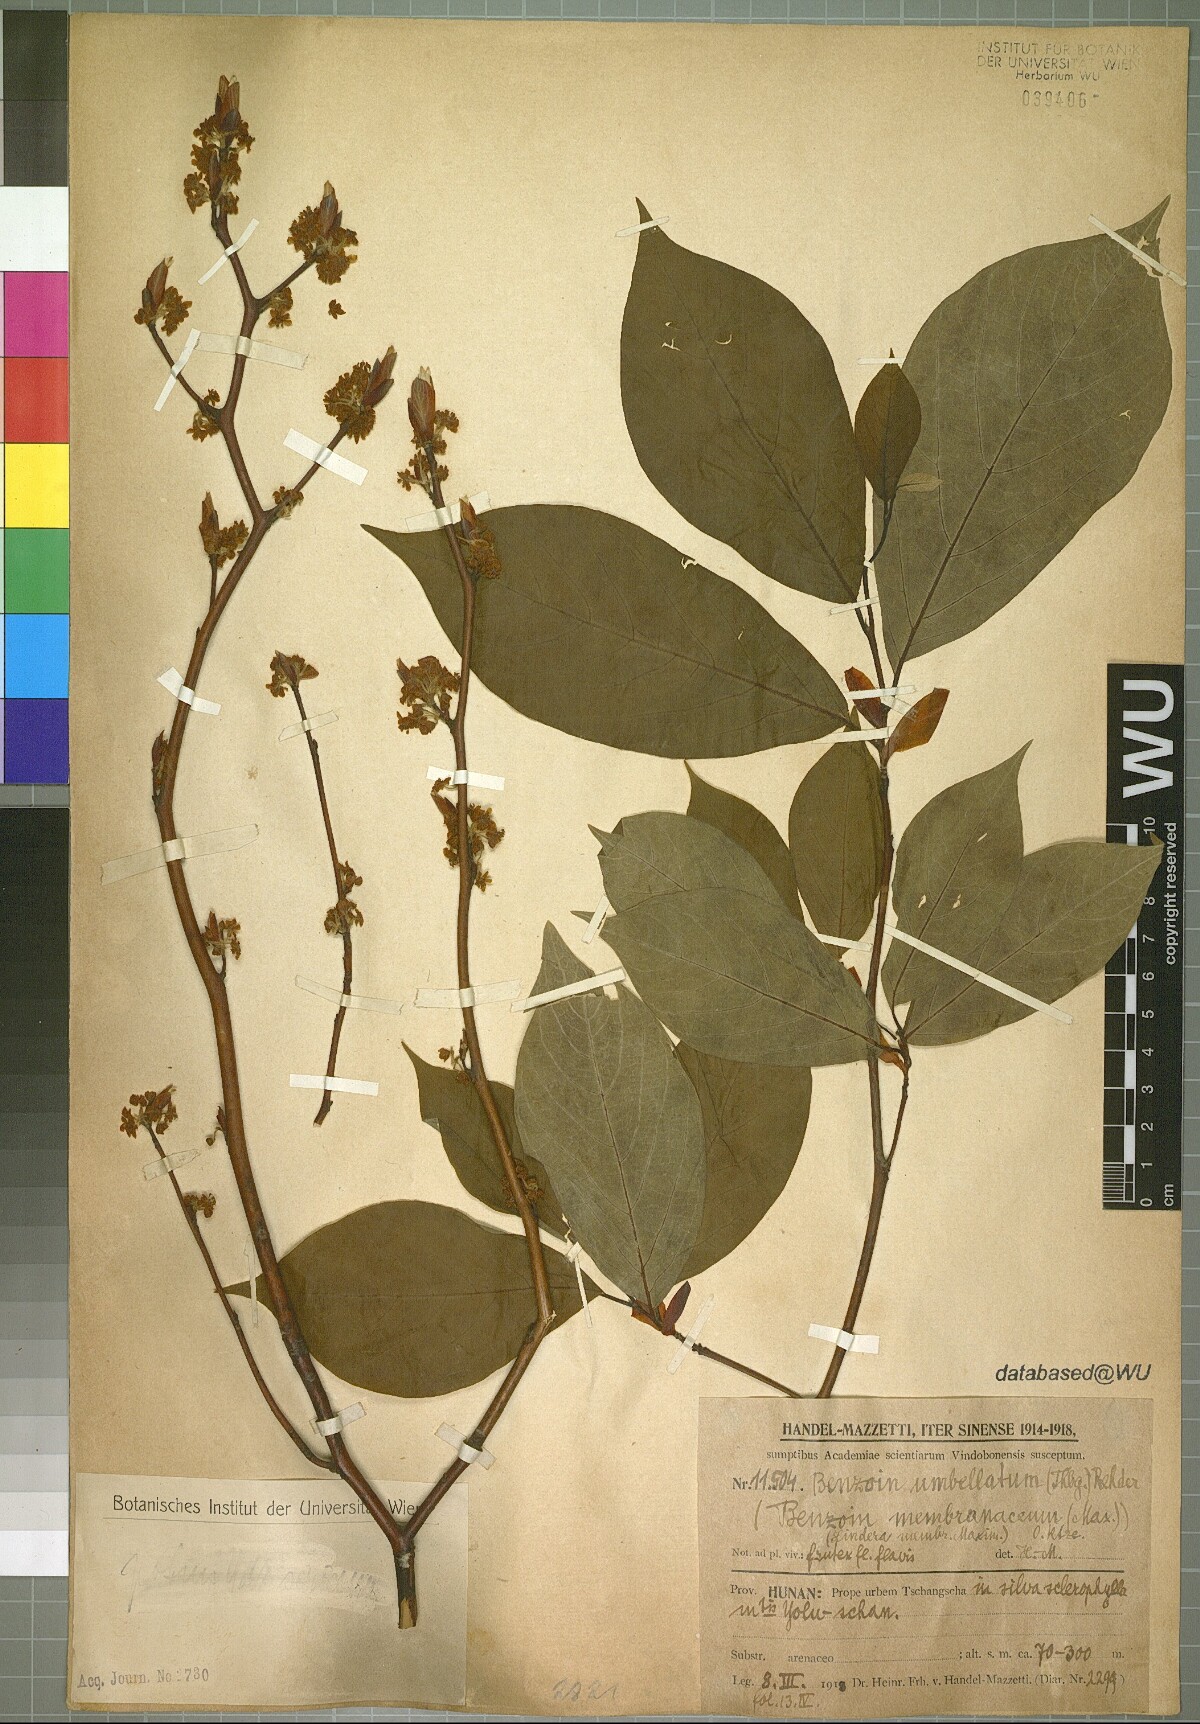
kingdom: Plantae
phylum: Tracheophyta
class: Magnoliopsida
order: Laurales
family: Lauraceae
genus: Lindera
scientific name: Lindera umbellata
